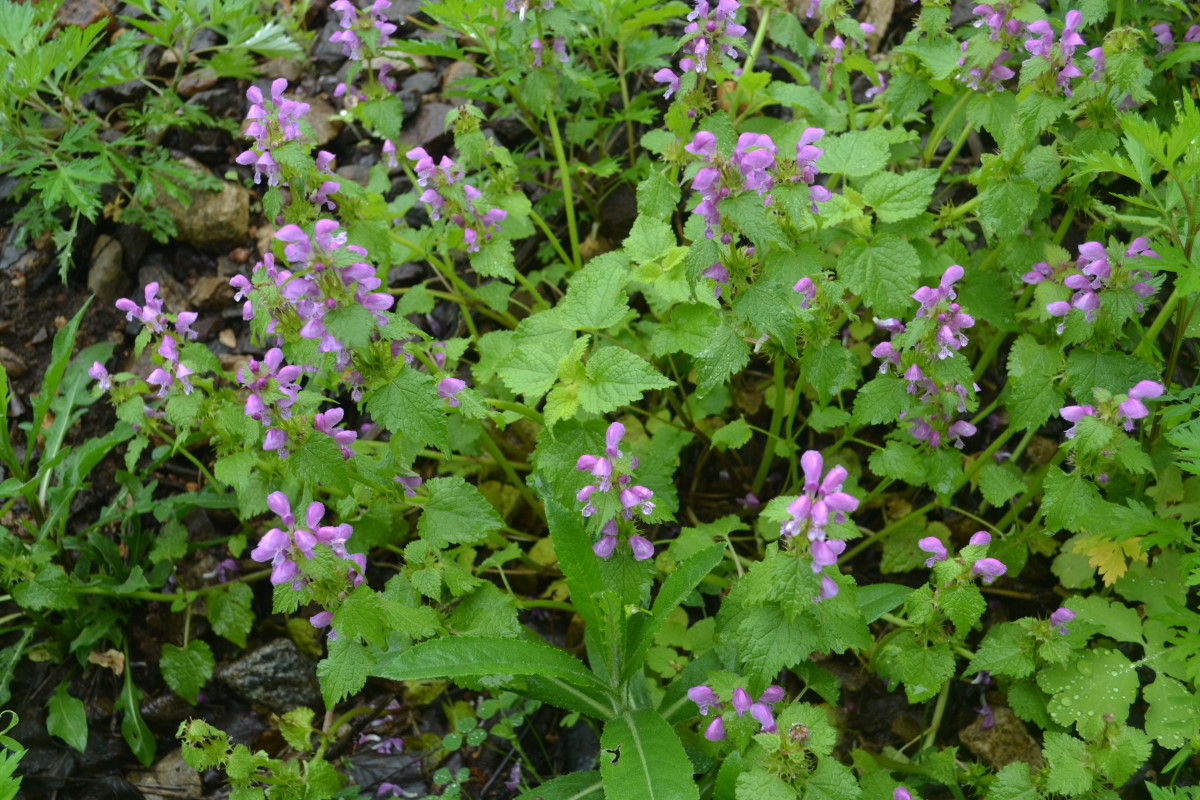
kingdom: Plantae
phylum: Tracheophyta
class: Magnoliopsida
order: Lamiales
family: Lamiaceae
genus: Lamium
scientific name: Lamium maculatum
